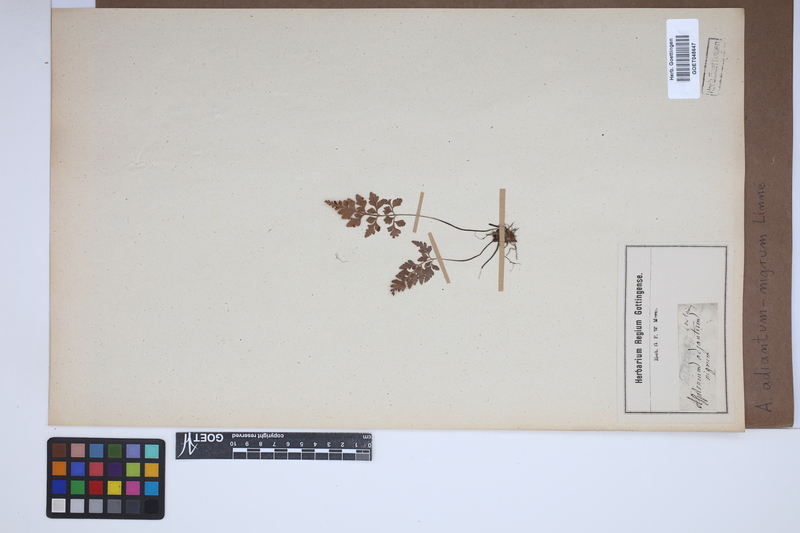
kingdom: Plantae
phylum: Tracheophyta
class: Polypodiopsida
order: Polypodiales
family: Aspleniaceae
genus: Asplenium
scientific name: Asplenium adiantum-nigrum
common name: Black spleenwort
